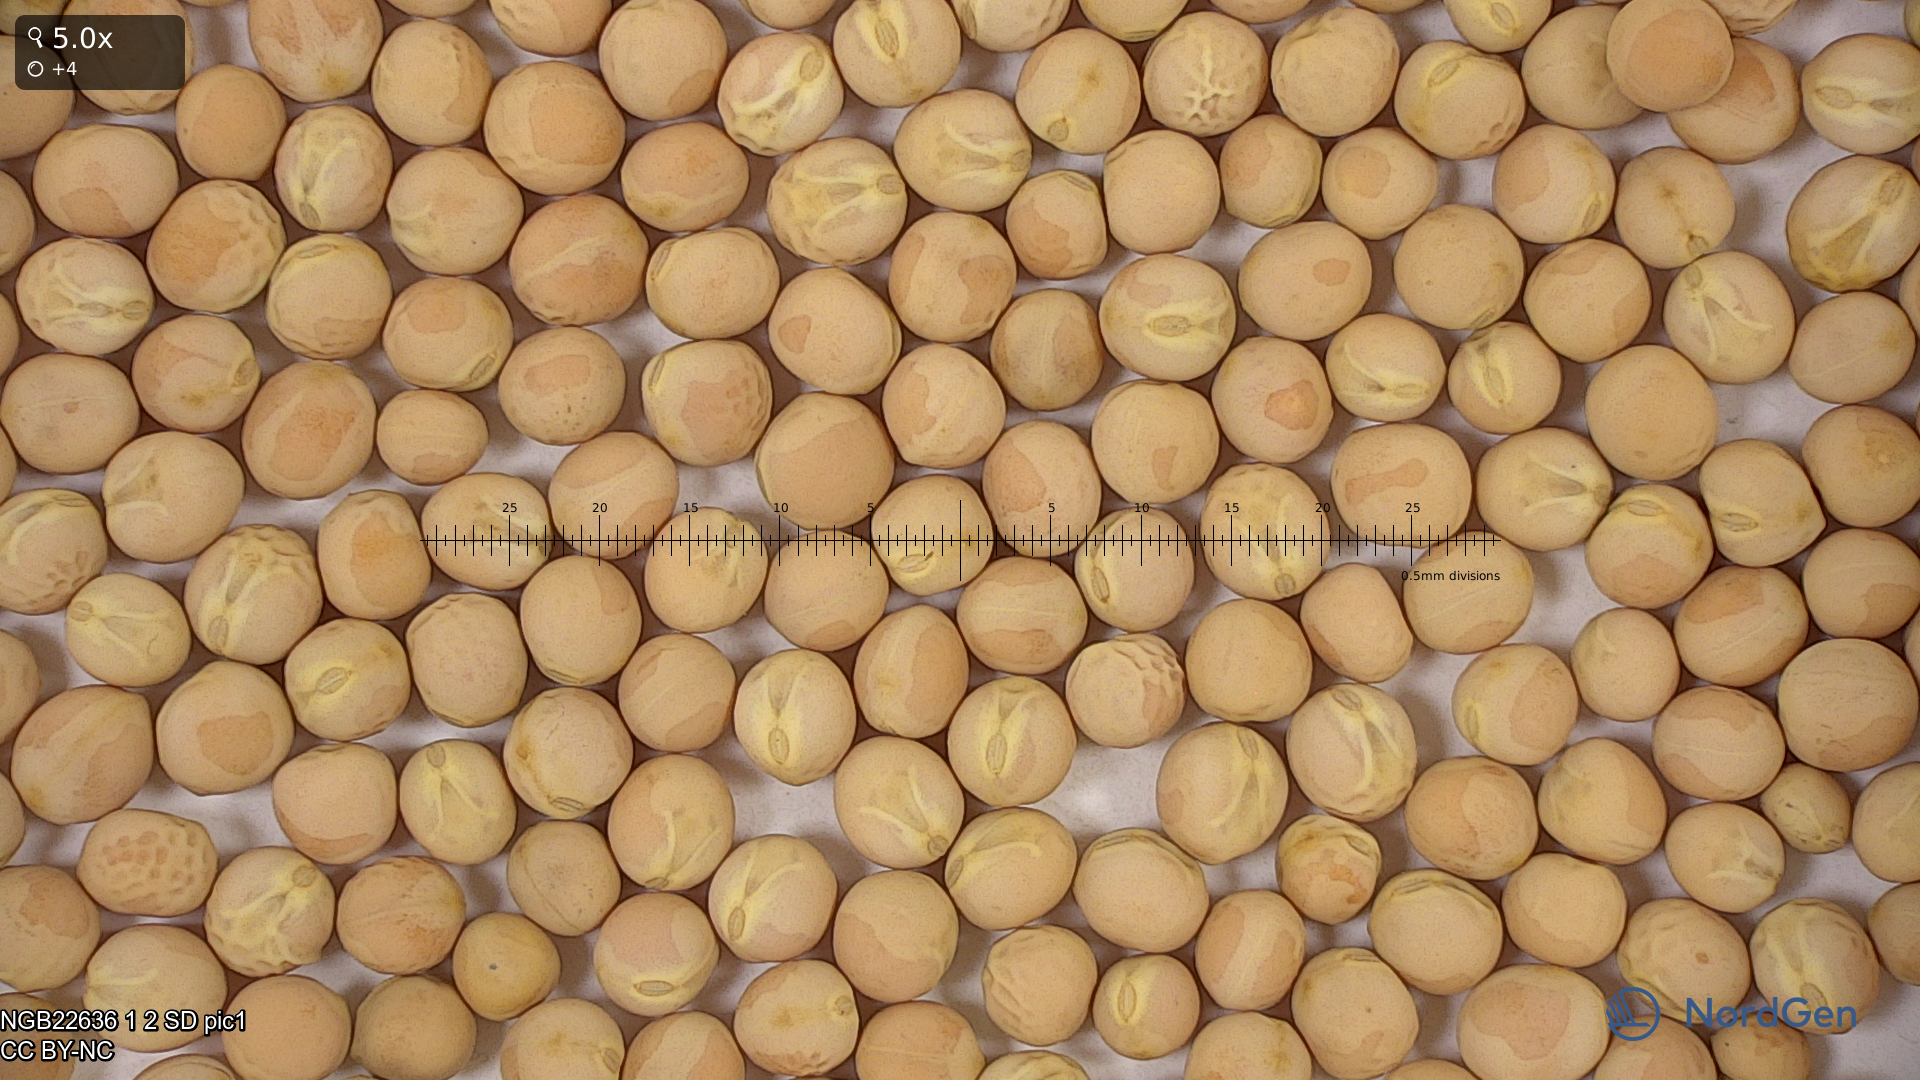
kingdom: Plantae
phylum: Tracheophyta
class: Magnoliopsida
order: Fabales
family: Fabaceae
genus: Lathyrus
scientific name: Lathyrus oleraceus
